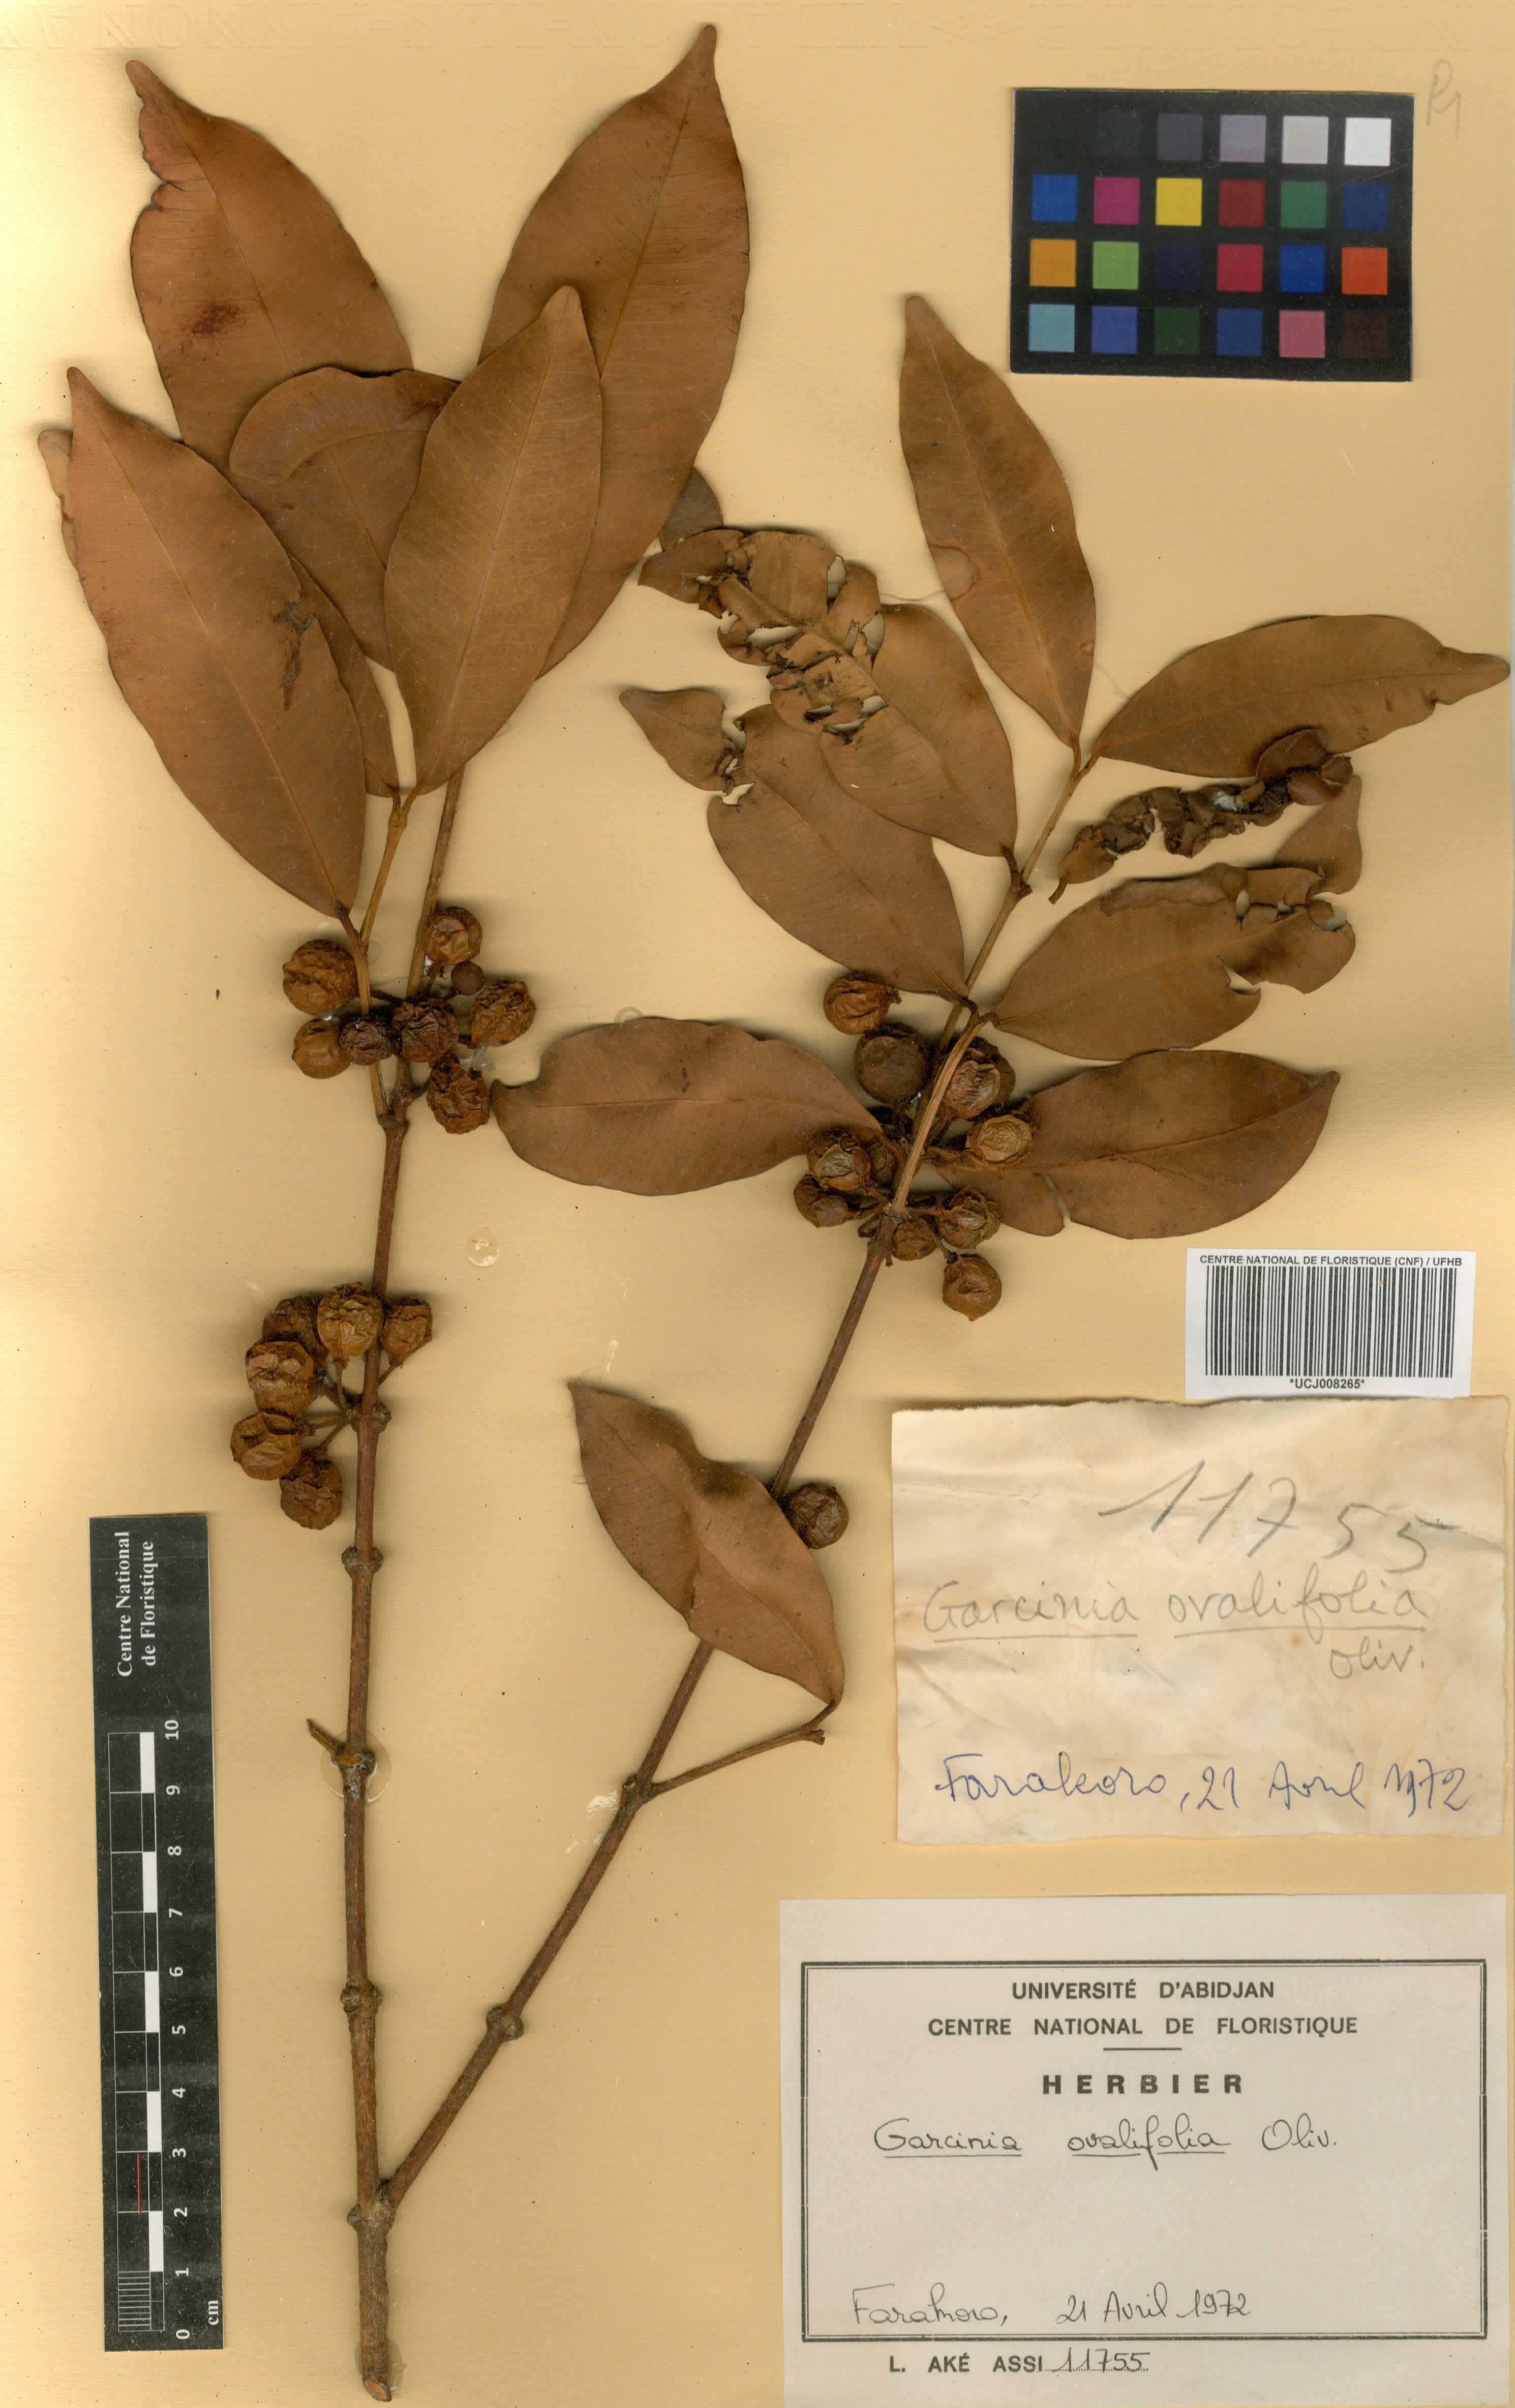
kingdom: Plantae
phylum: Tracheophyta
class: Magnoliopsida
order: Malpighiales
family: Clusiaceae
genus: Garcinia
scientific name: Garcinia ovalifolia
